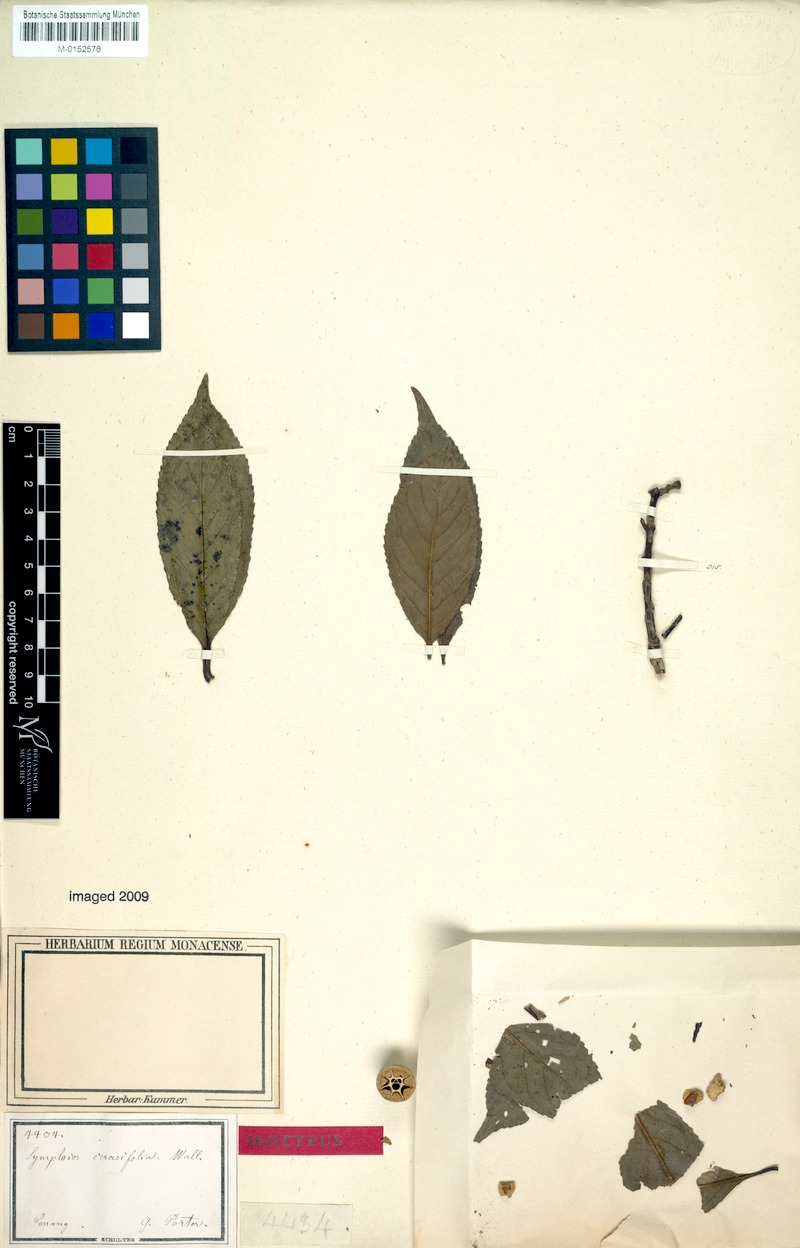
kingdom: Plantae
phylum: Tracheophyta
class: Magnoliopsida
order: Ericales
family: Symplocaceae
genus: Symplocos
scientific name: Symplocos cerasifolia
